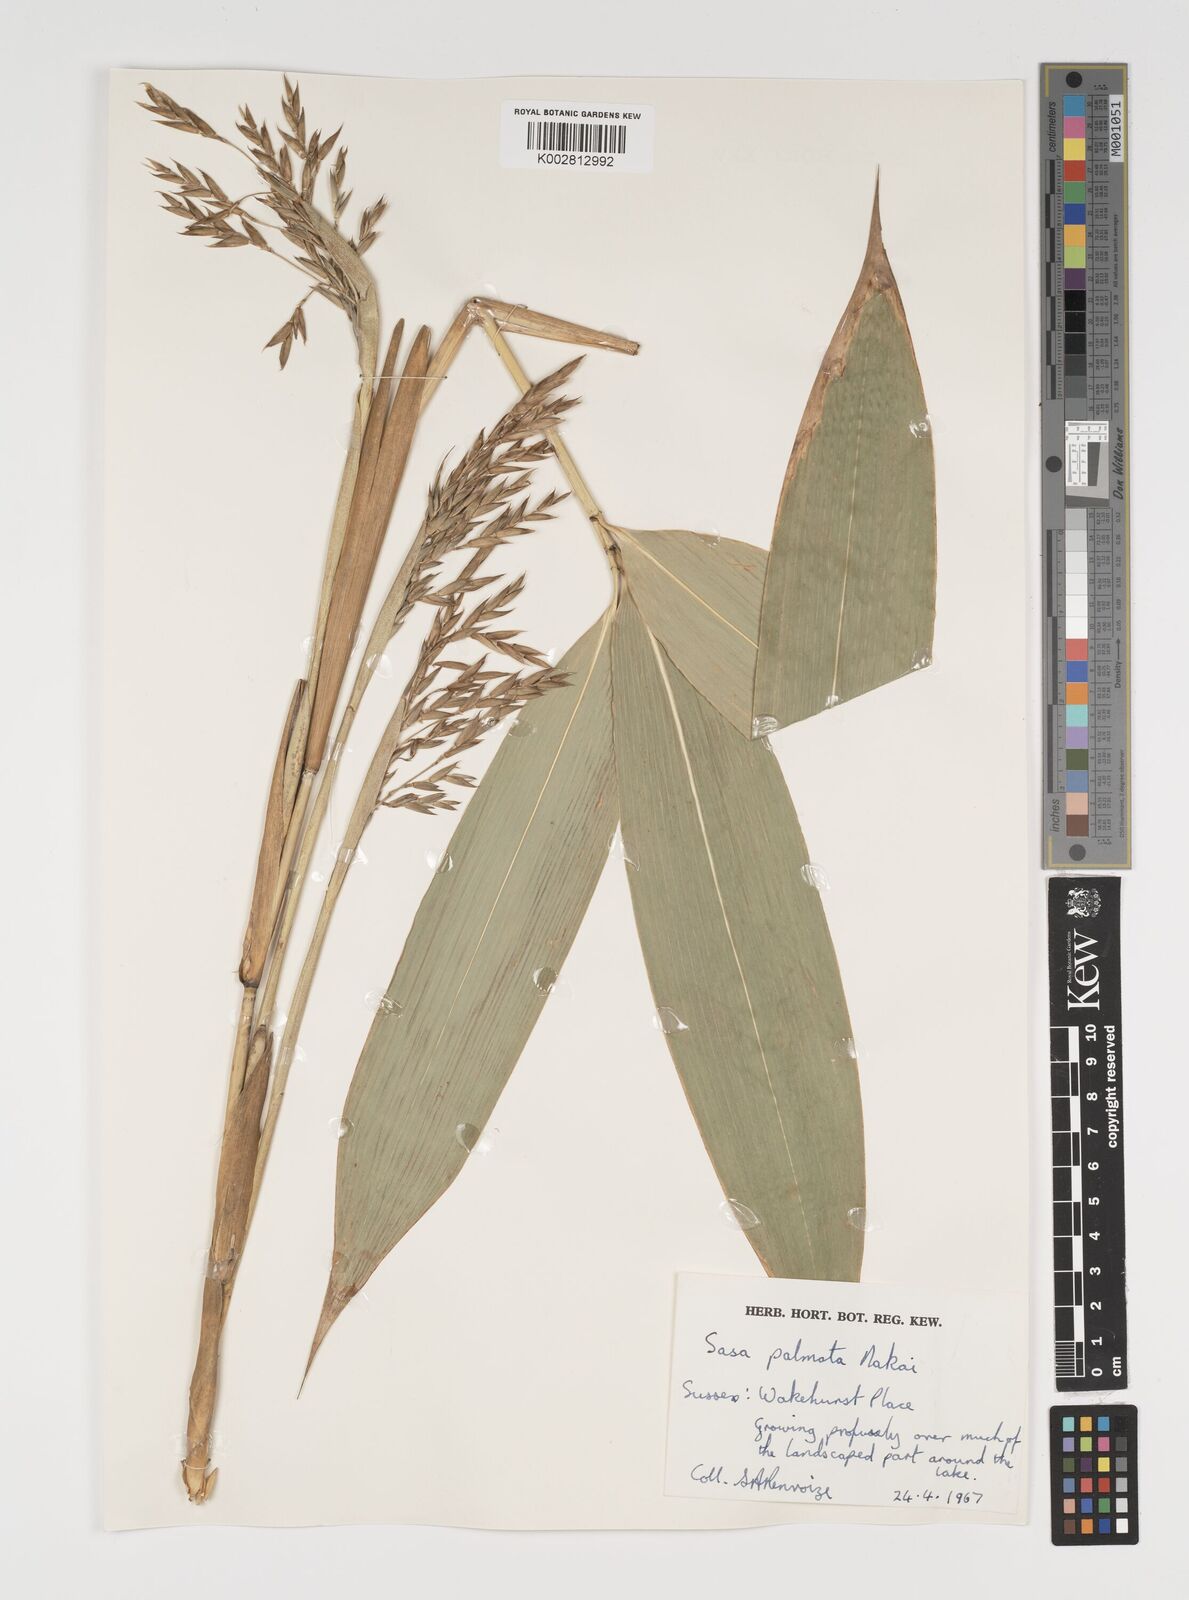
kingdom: Plantae
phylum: Tracheophyta
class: Liliopsida
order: Poales
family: Poaceae
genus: Sasa
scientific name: Sasa palmata
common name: Broad-leaved bamboo
